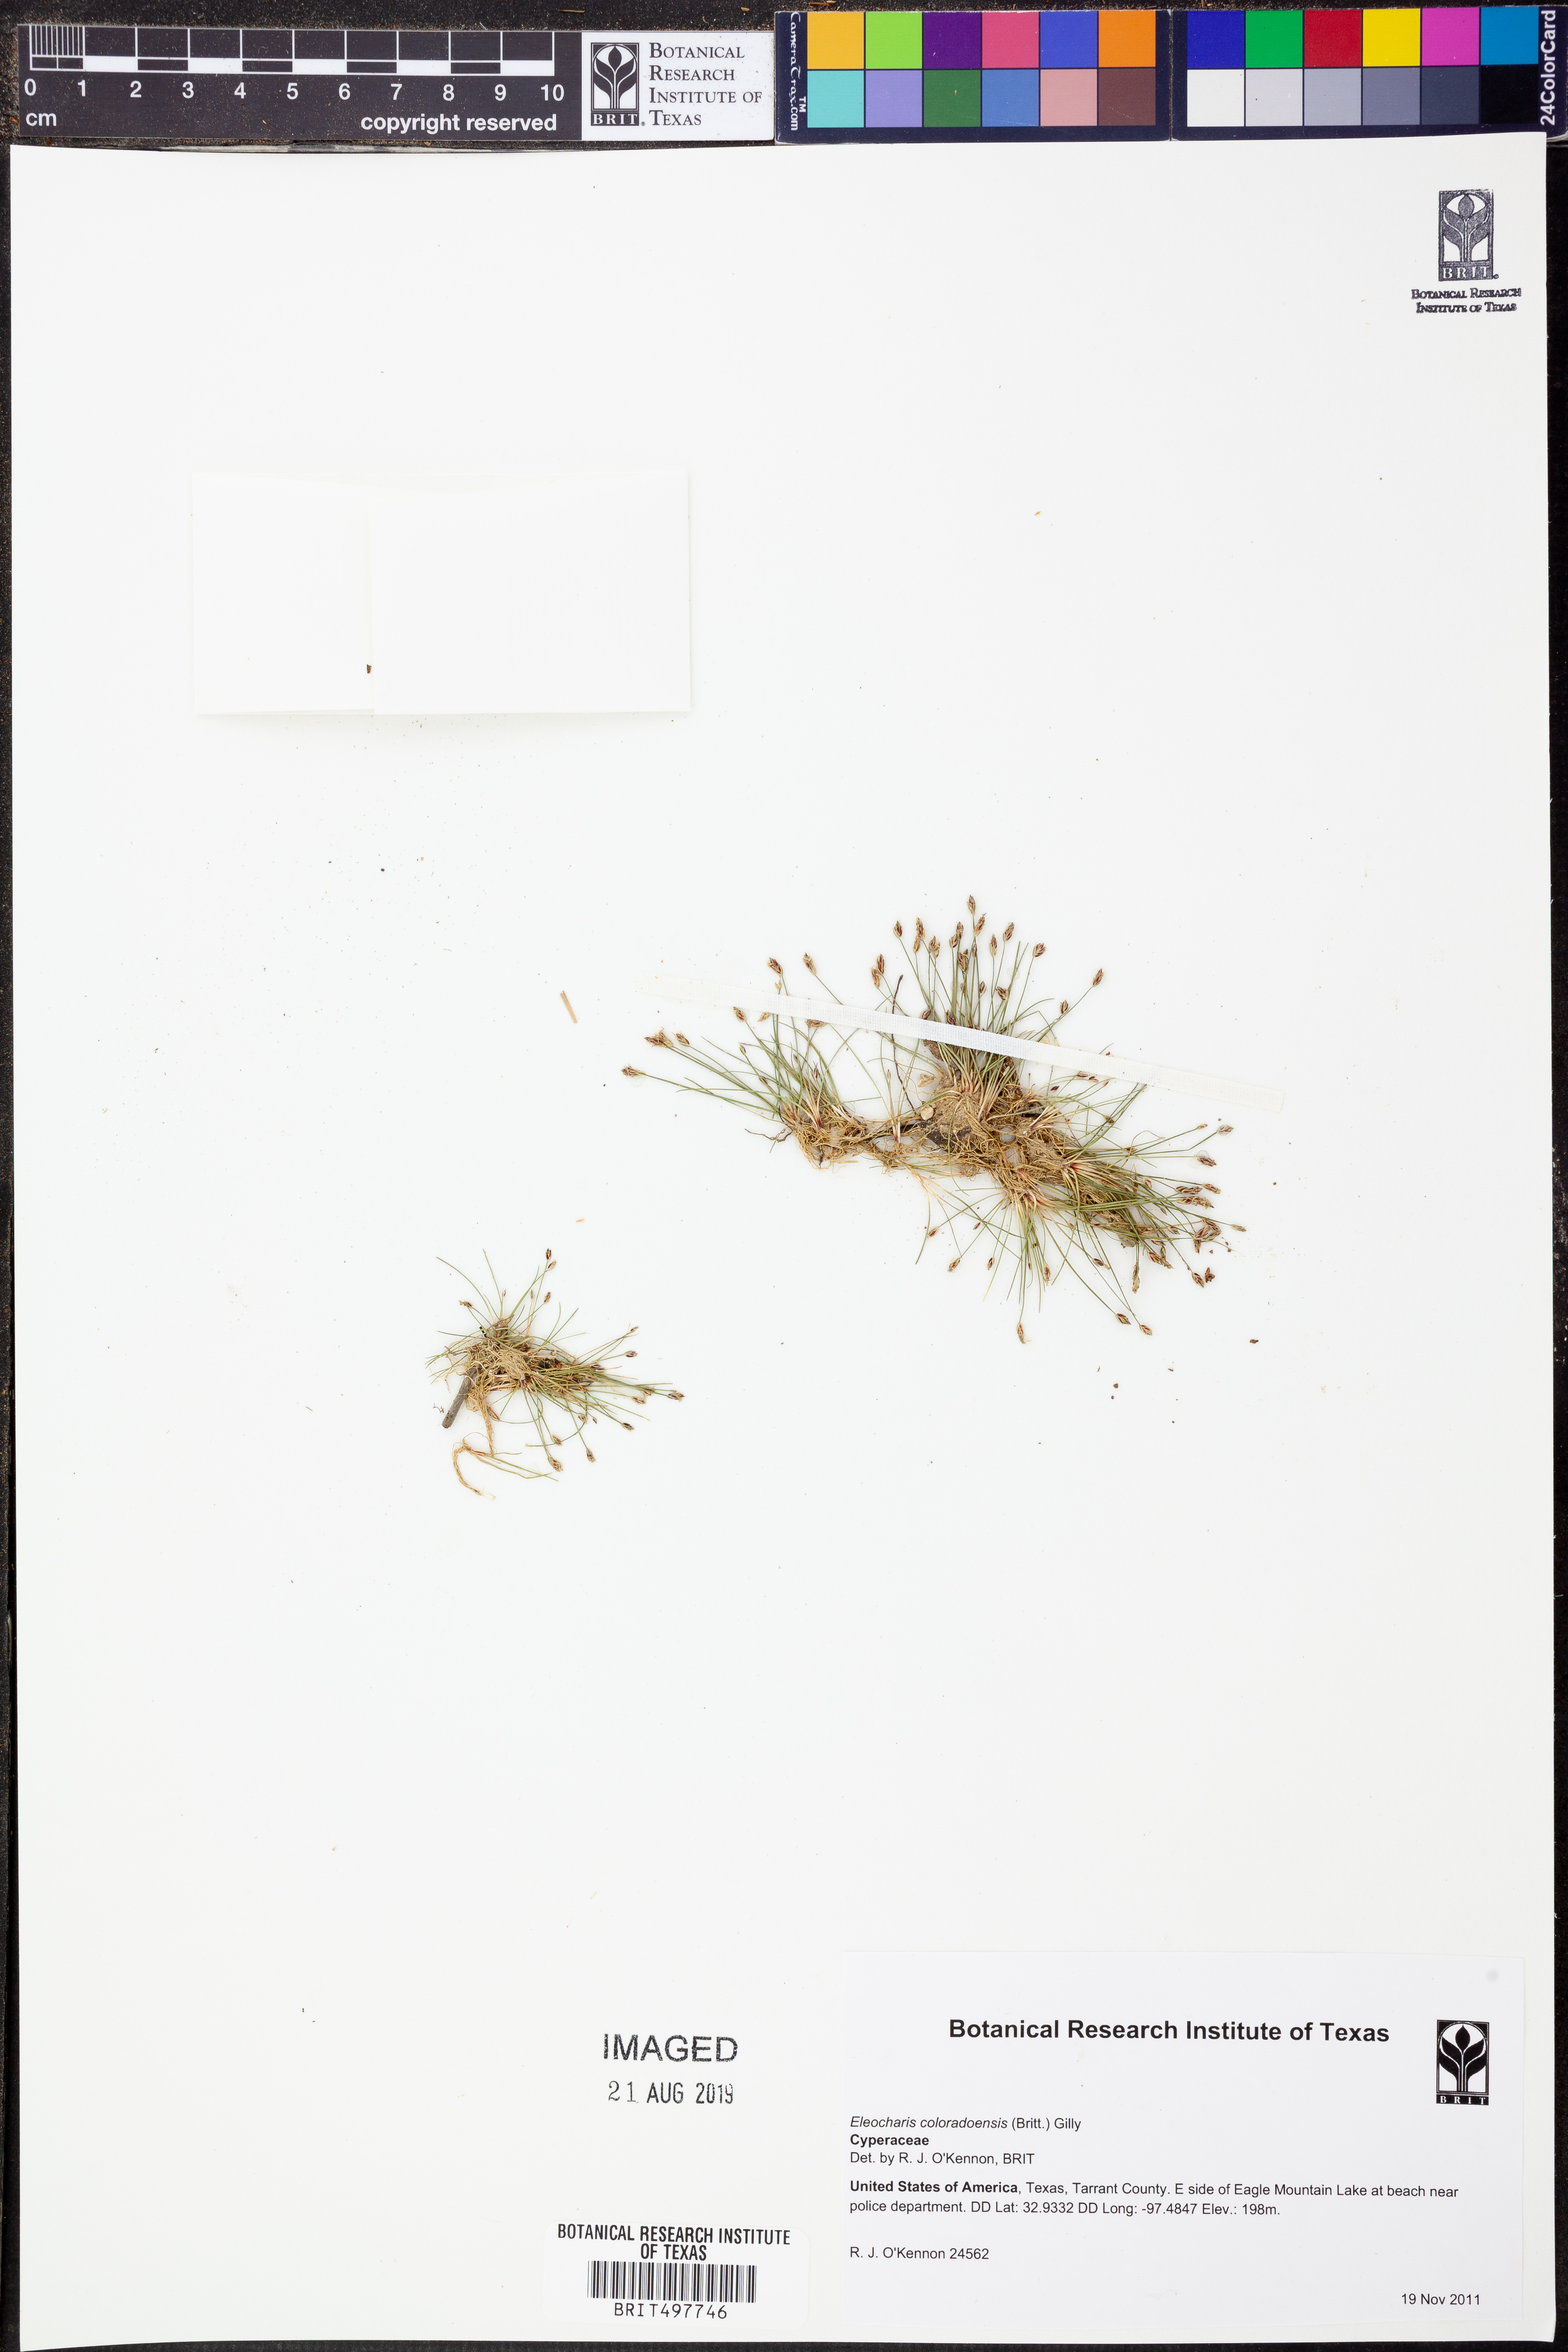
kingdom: Plantae
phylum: Tracheophyta
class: Liliopsida
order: Poales
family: Cyperaceae
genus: Eleocharis
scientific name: Eleocharis coloradoensis
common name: Colorado spikerush
